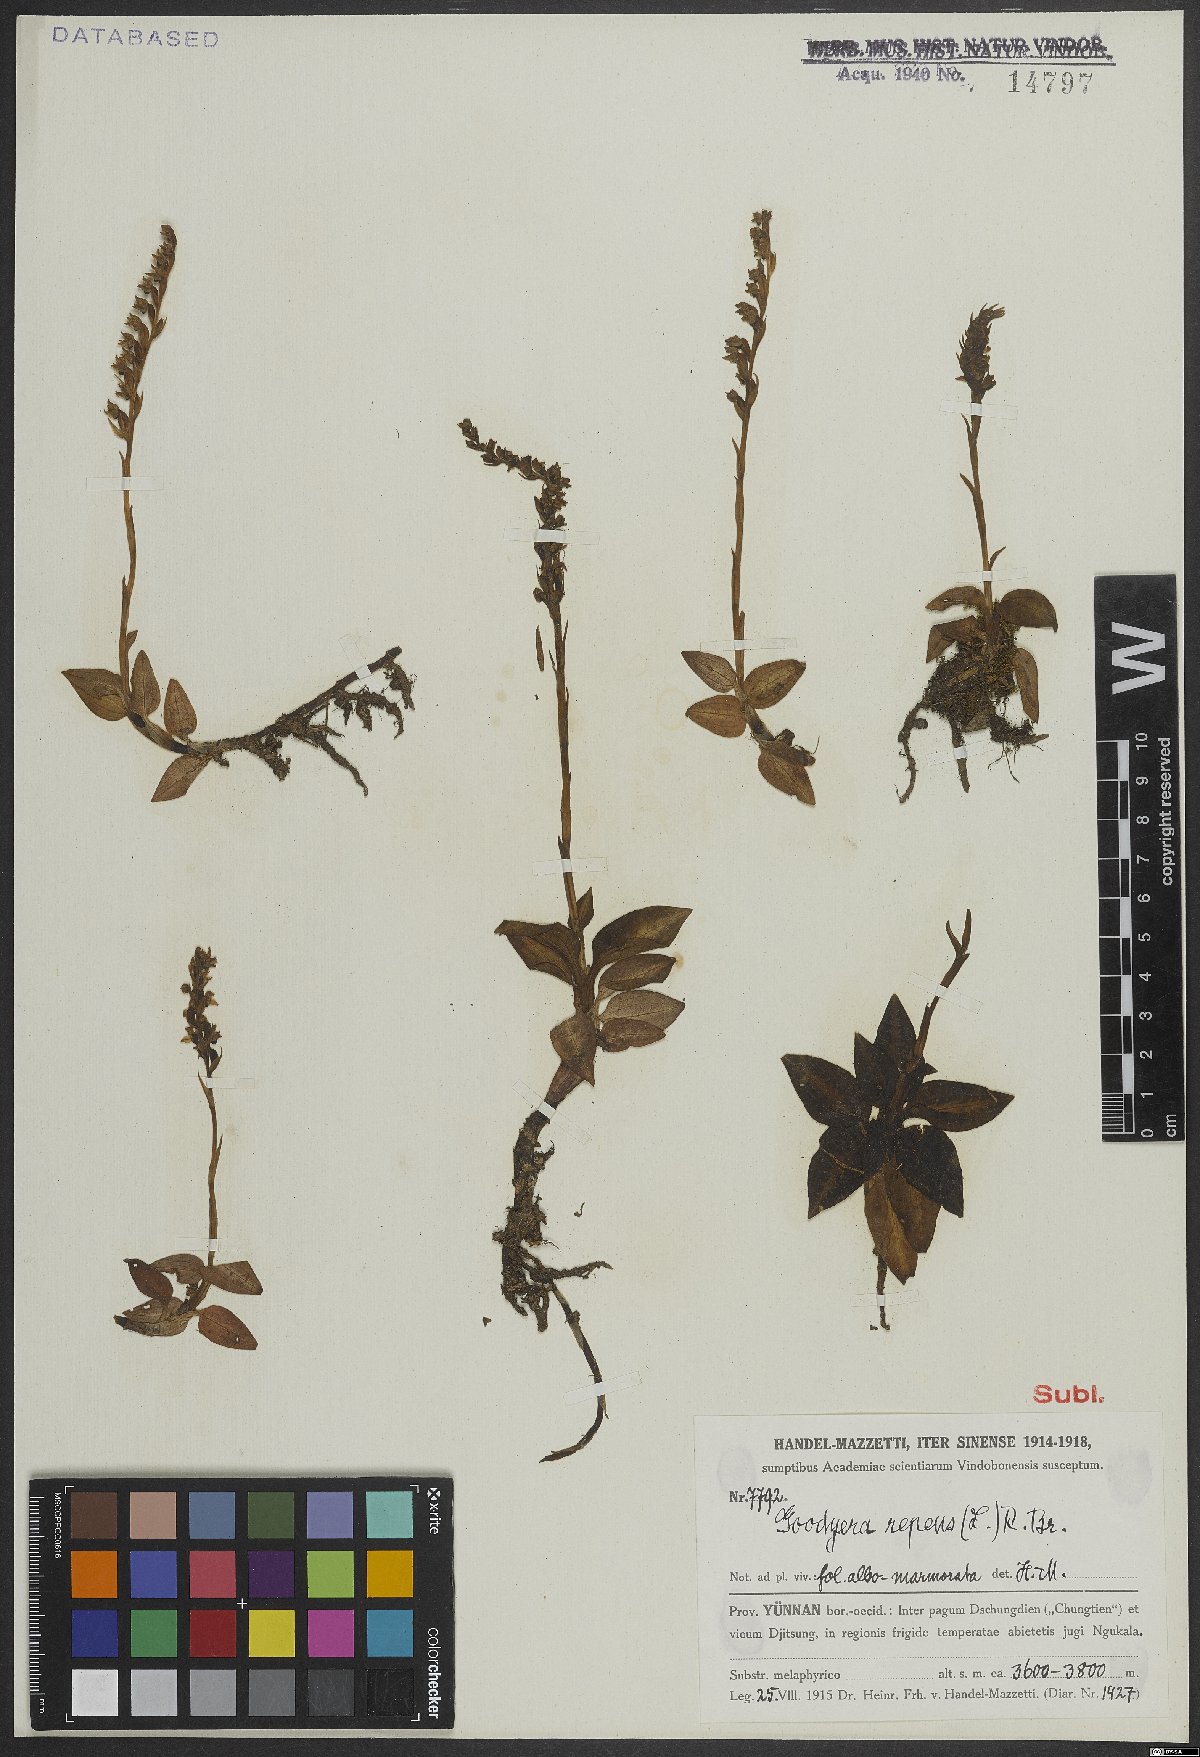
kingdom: Plantae
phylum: Tracheophyta
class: Liliopsida
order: Asparagales
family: Orchidaceae
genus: Goodyera
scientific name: Goodyera repens
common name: Creeping lady's-tresses
